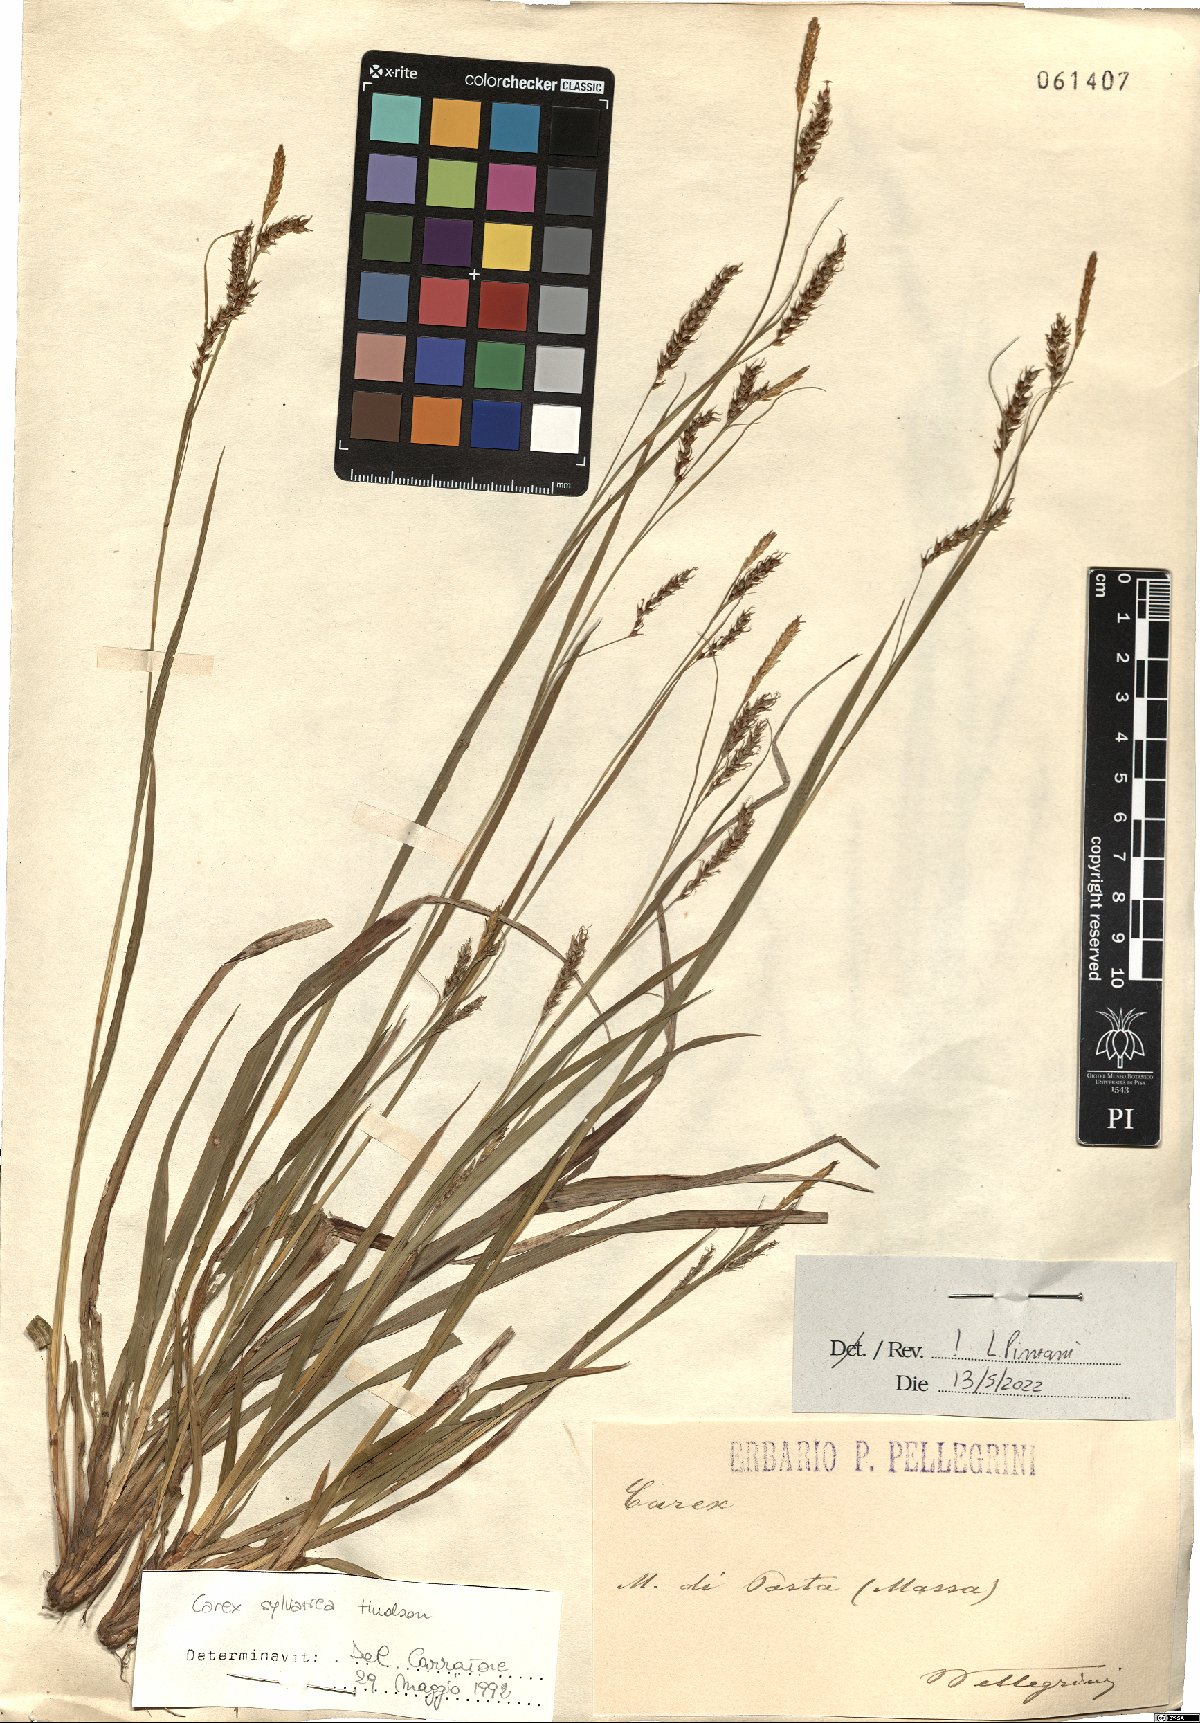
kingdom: Plantae
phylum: Tracheophyta
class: Liliopsida
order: Poales
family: Cyperaceae
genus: Carex
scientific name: Carex sylvatica
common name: Wood-sedge
